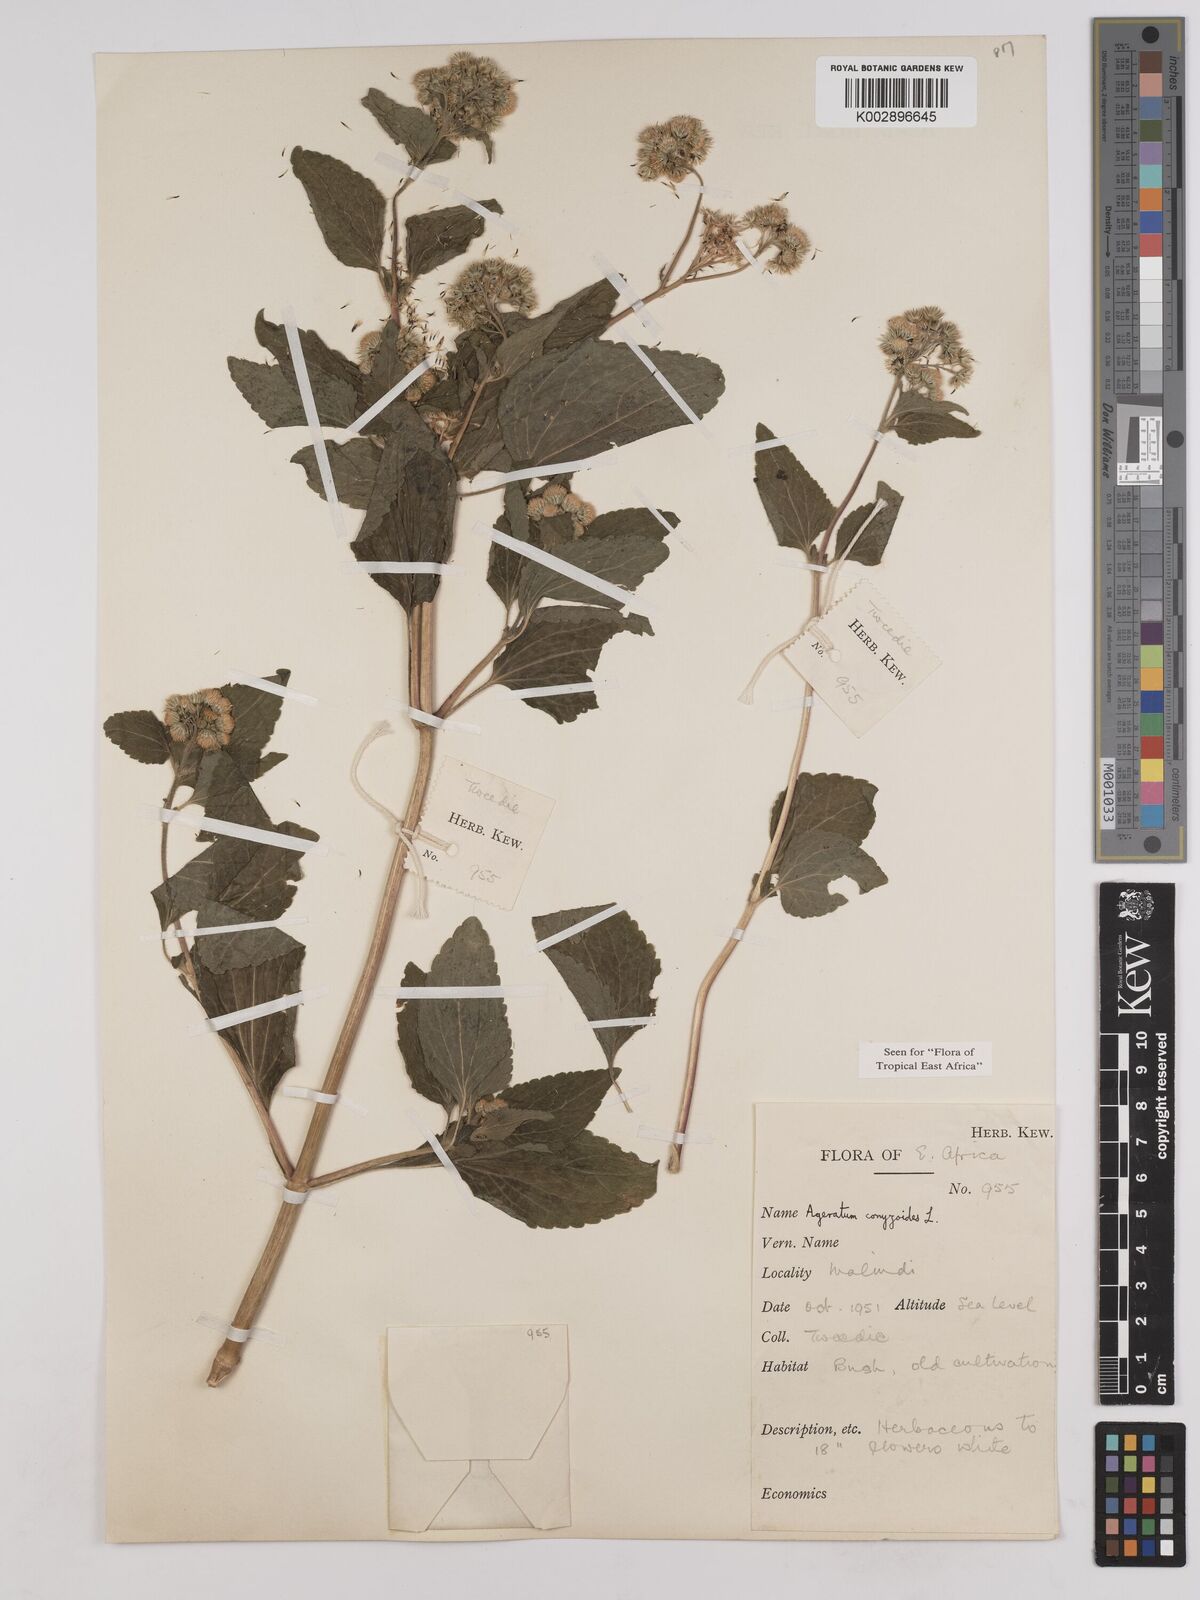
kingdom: Plantae
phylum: Tracheophyta
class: Magnoliopsida
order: Asterales
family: Asteraceae
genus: Ageratum
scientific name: Ageratum conyzoides
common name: Tropical whiteweed
